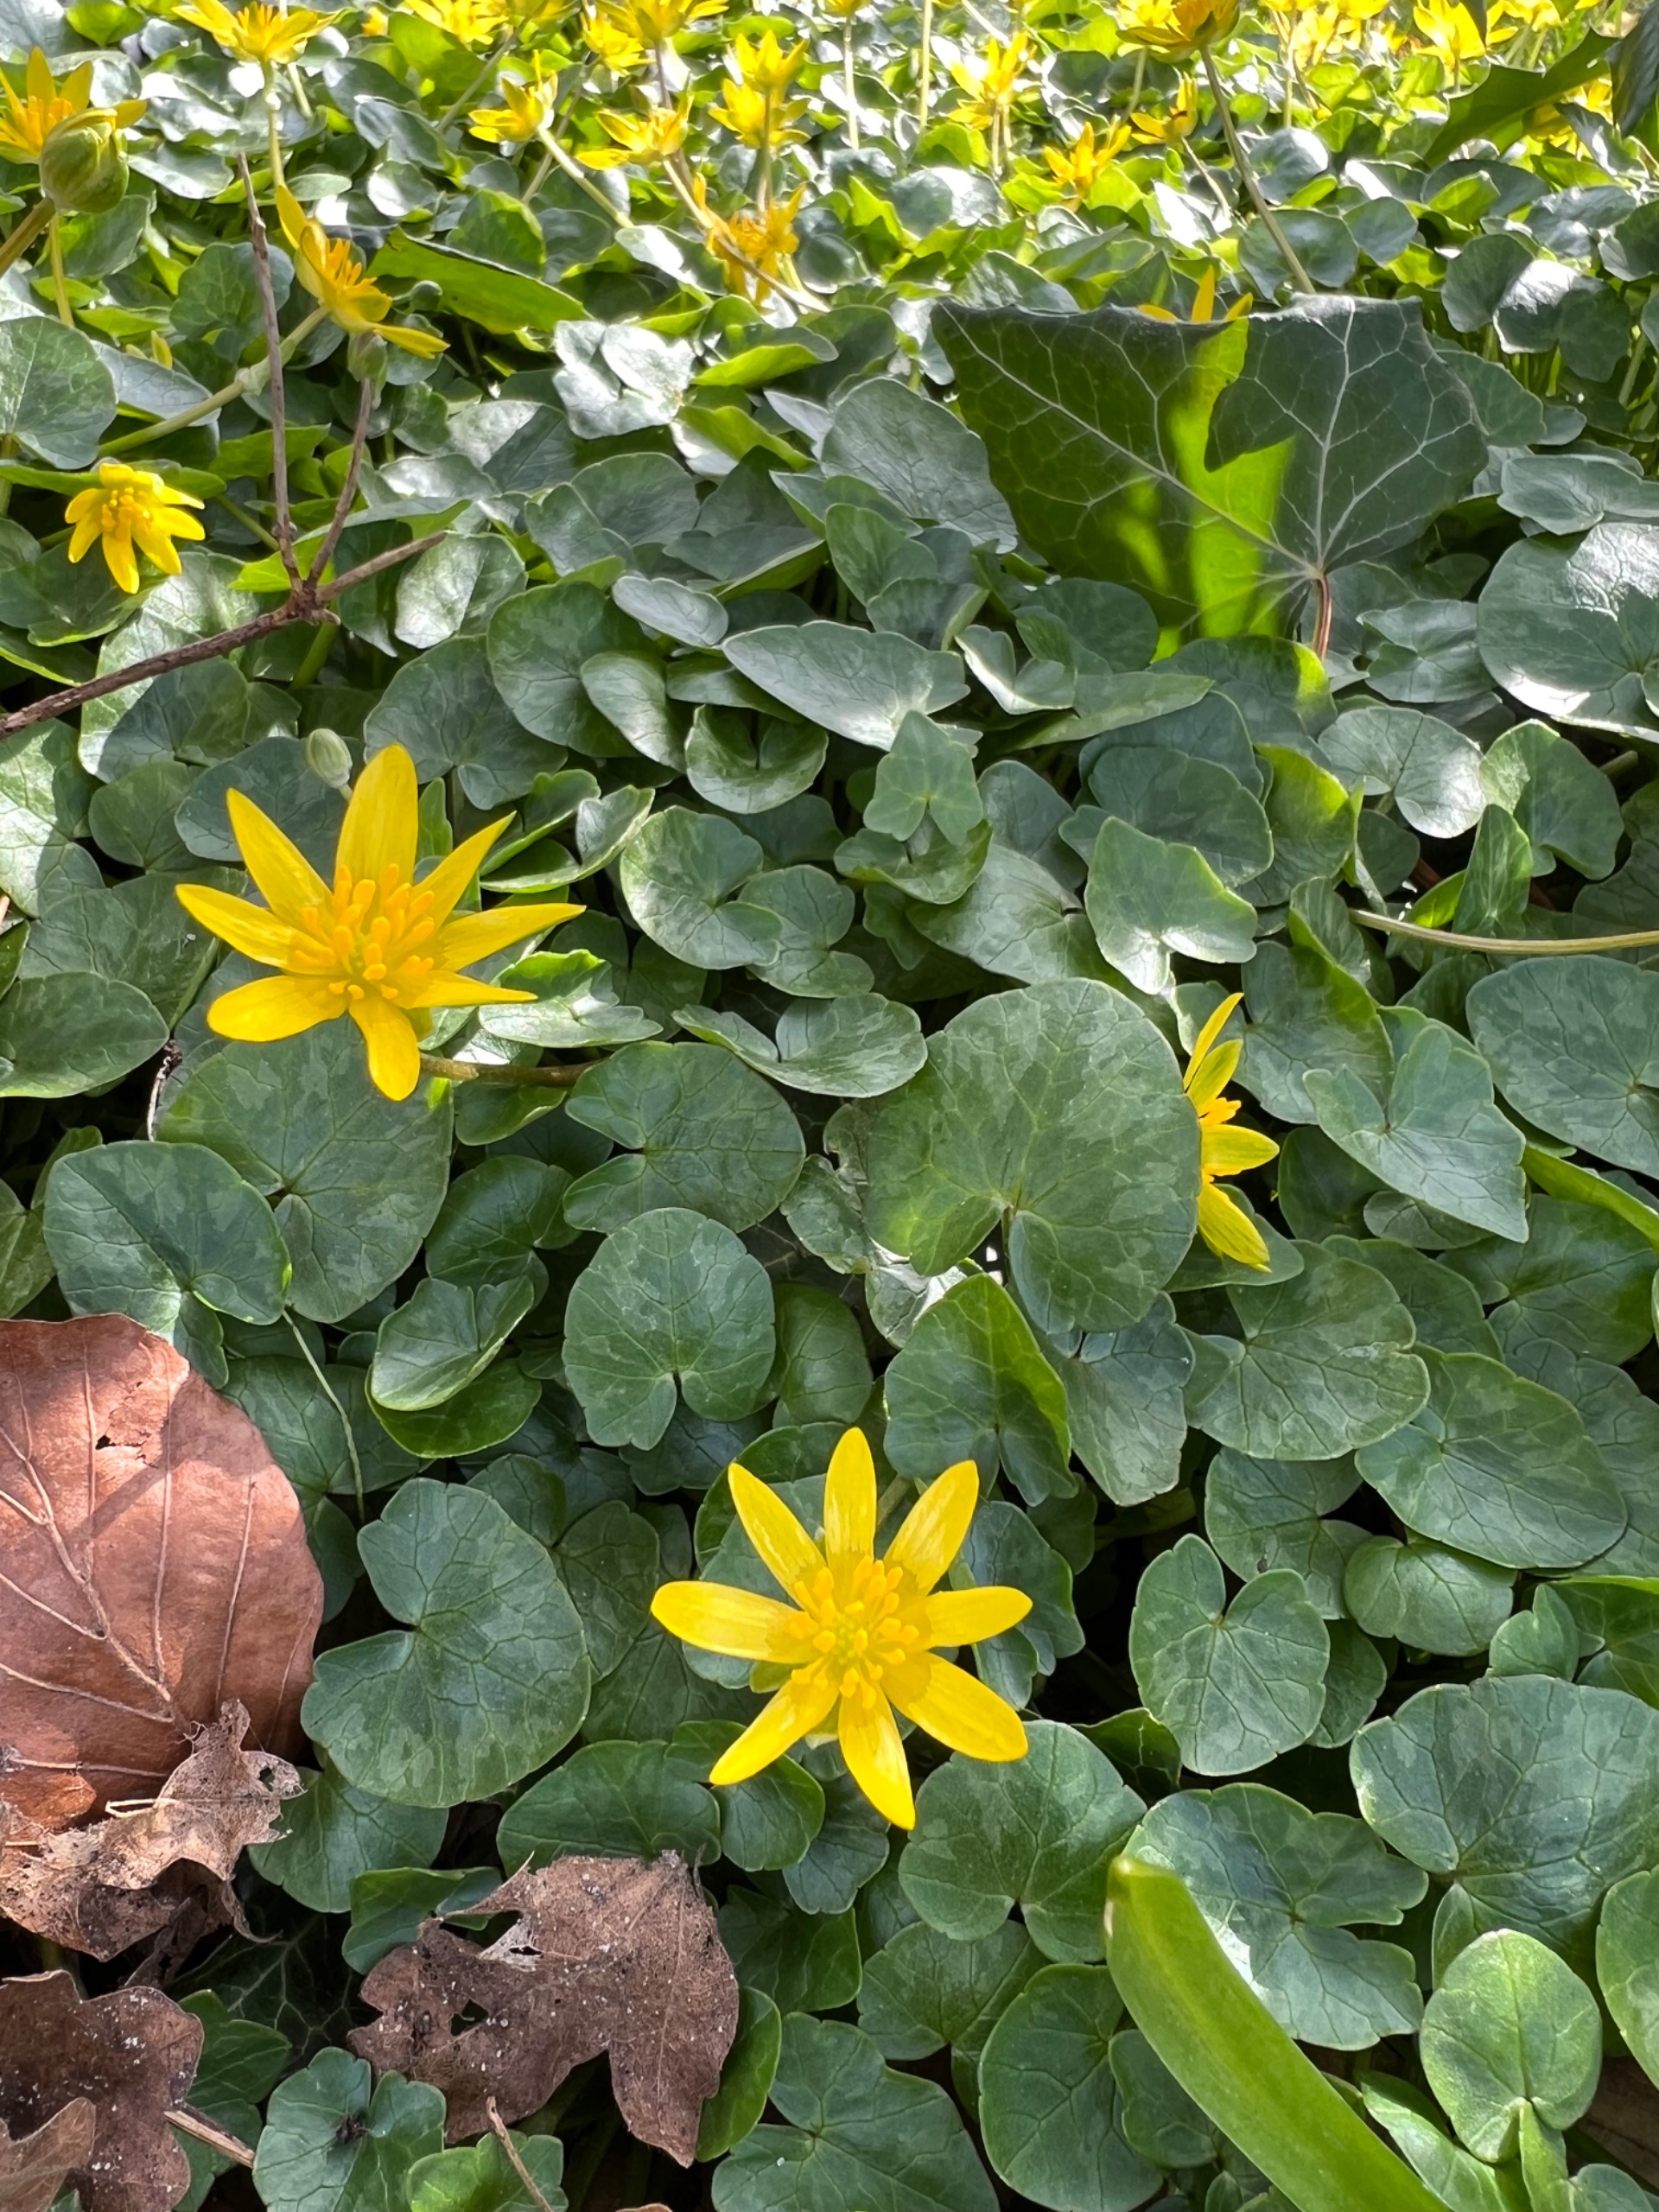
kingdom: Plantae
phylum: Tracheophyta
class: Magnoliopsida
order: Ranunculales
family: Ranunculaceae
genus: Ficaria
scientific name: Ficaria verna
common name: Vorterod
